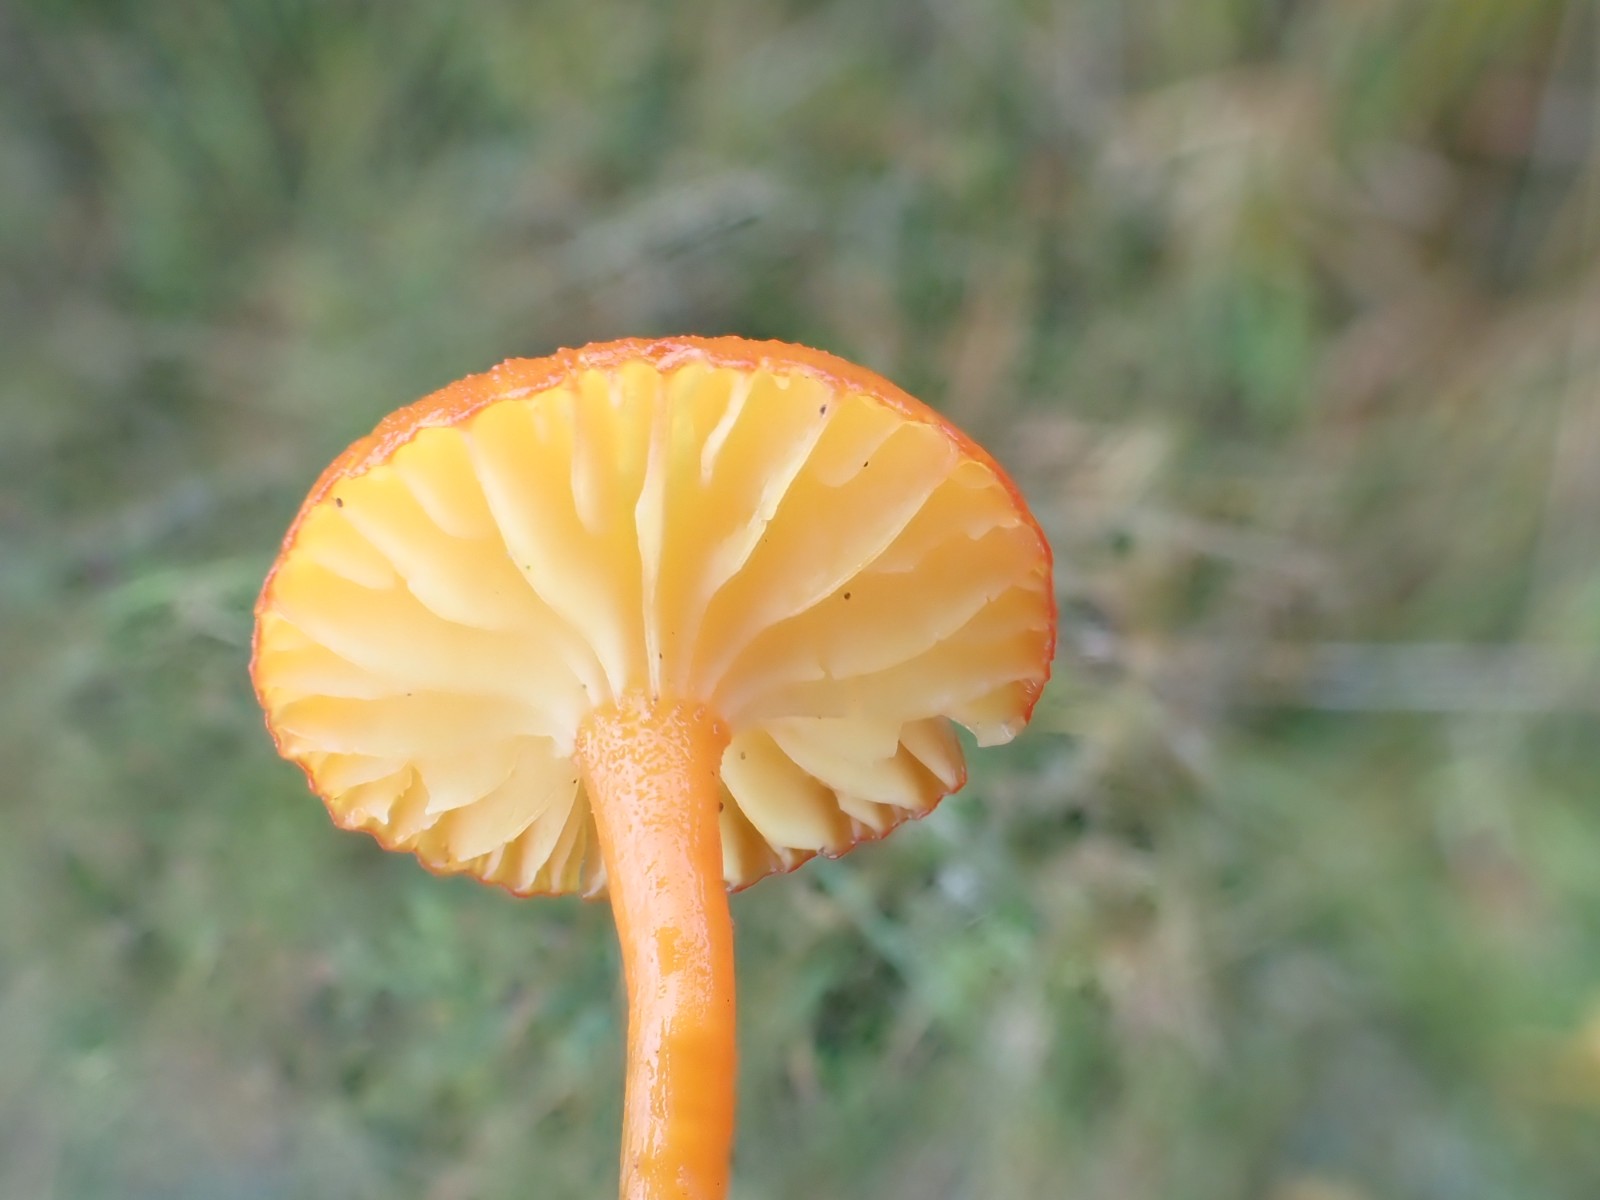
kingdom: Fungi
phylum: Basidiomycota
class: Agaricomycetes
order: Agaricales
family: Hygrophoraceae
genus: Hygrocybe
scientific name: Hygrocybe substrangulata
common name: kær-vokshat
